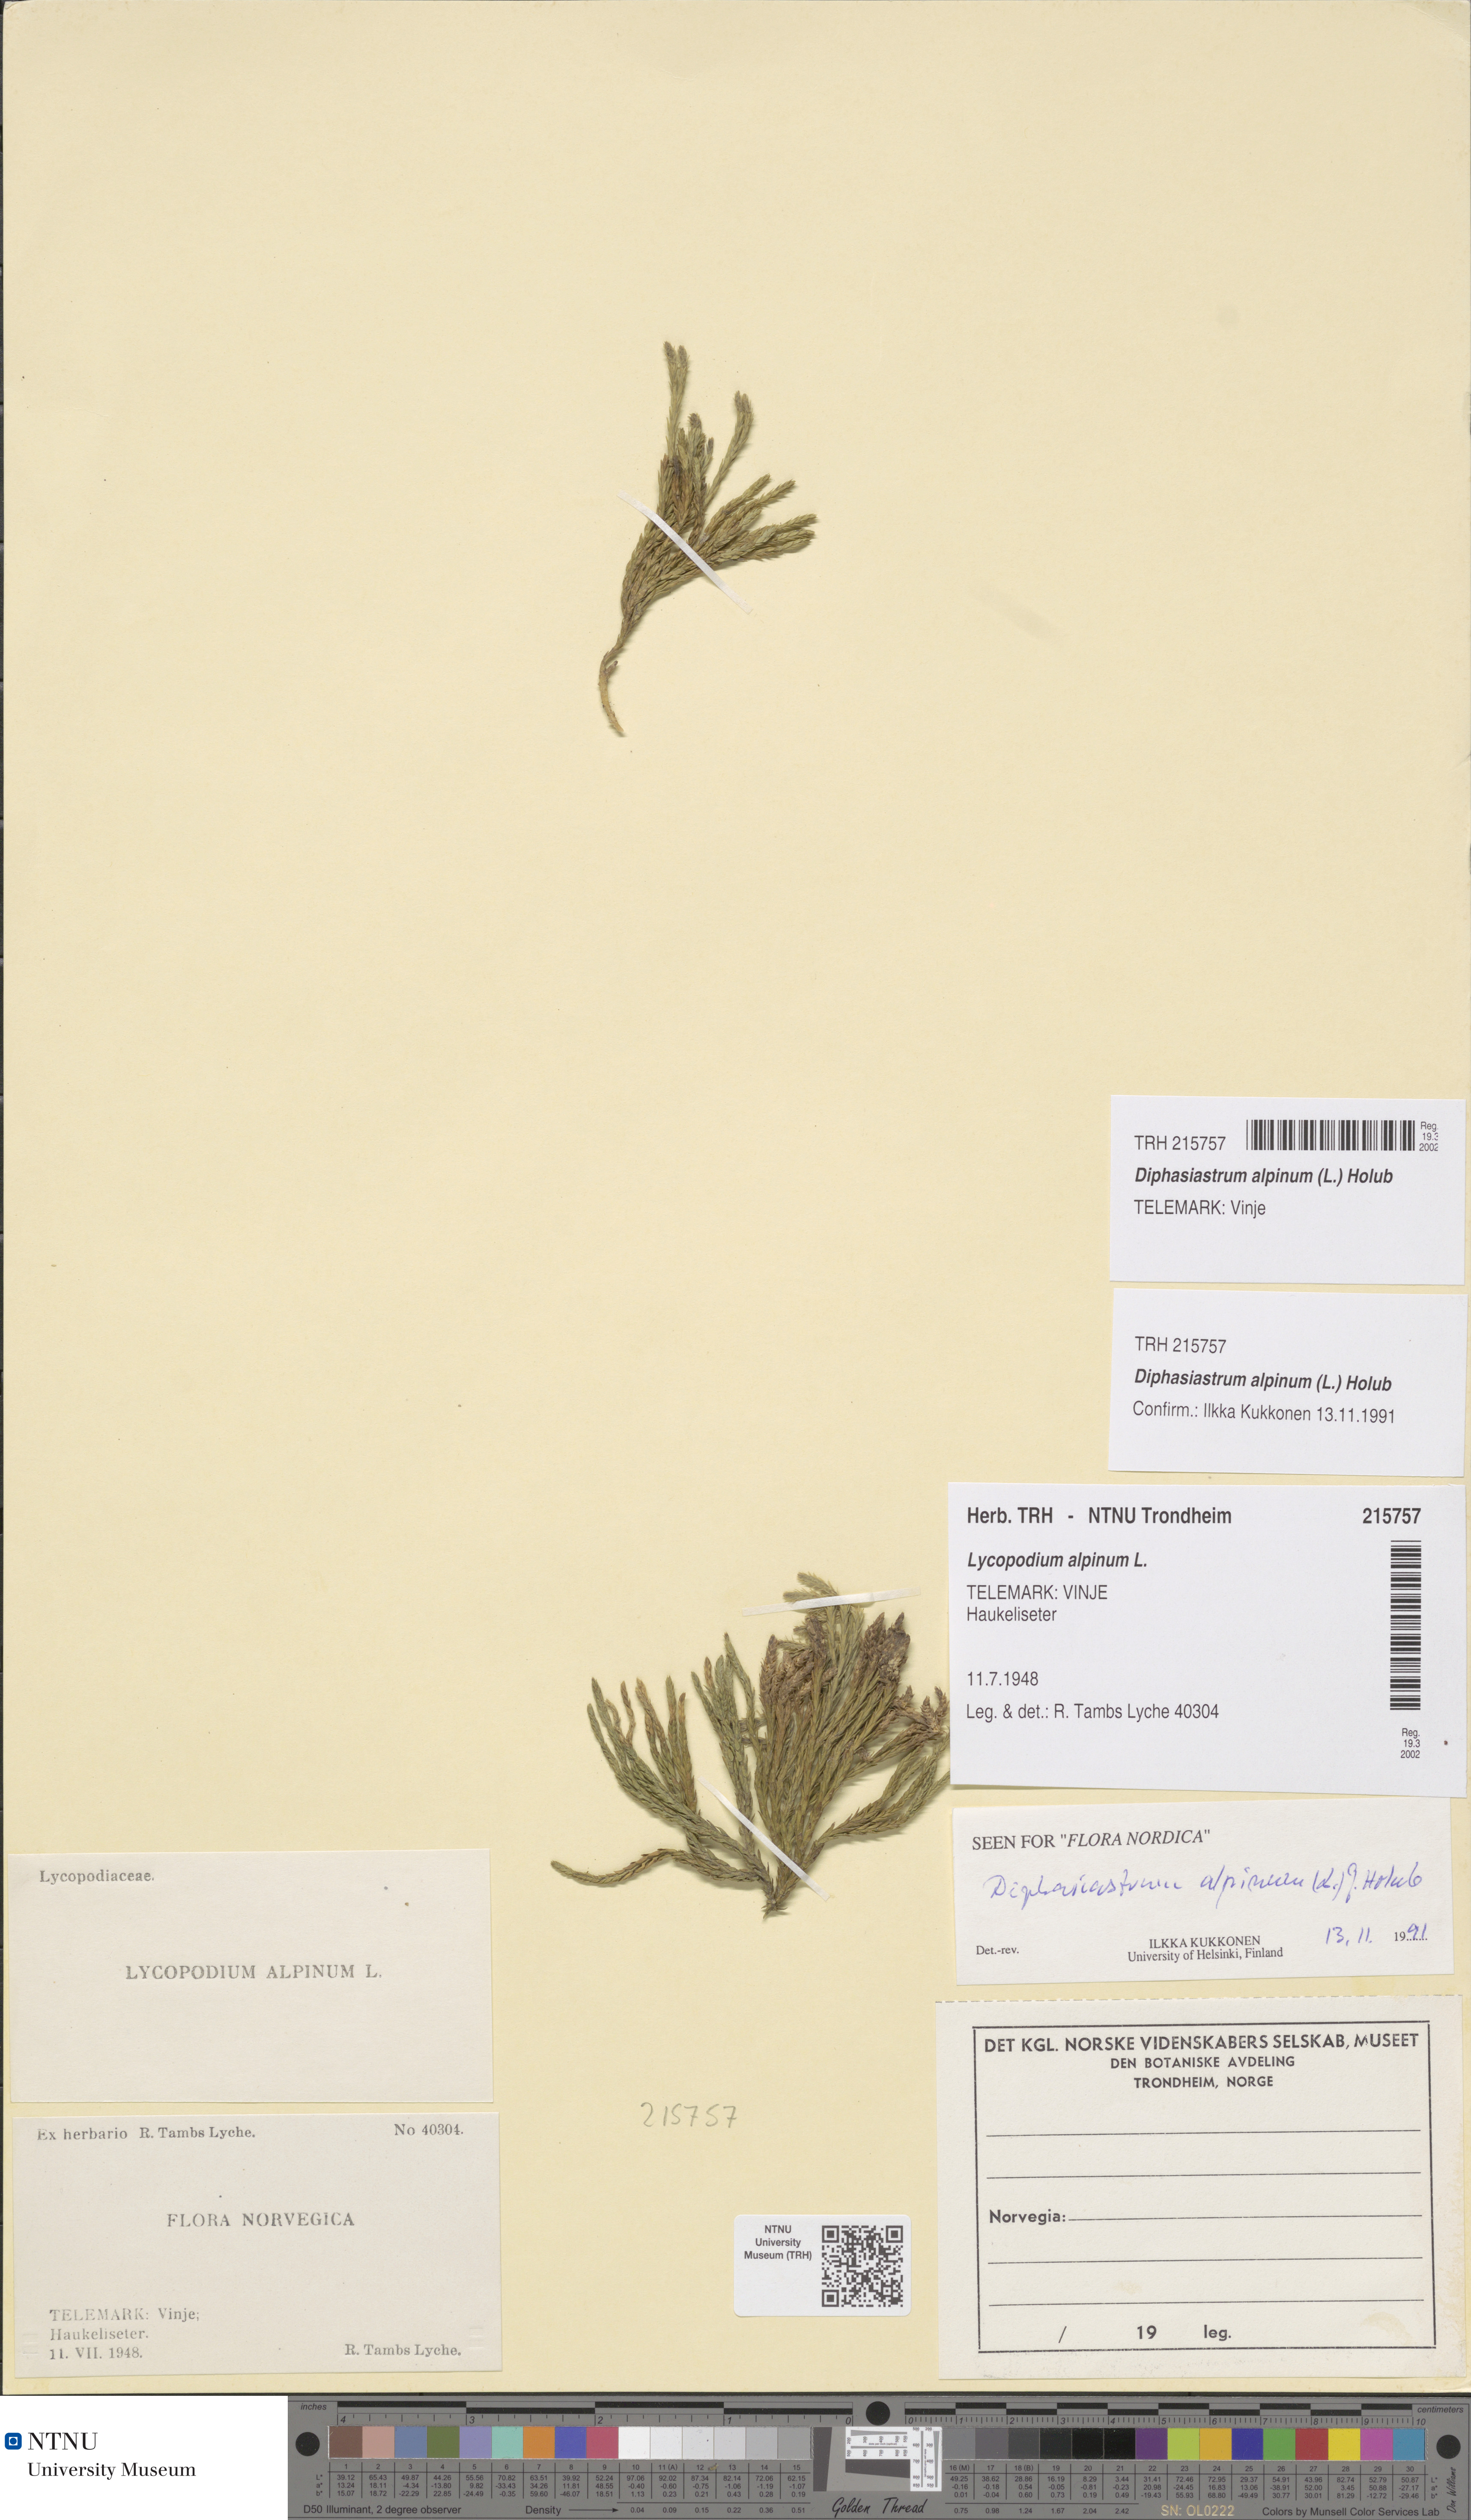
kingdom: Plantae
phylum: Tracheophyta
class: Lycopodiopsida
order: Lycopodiales
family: Lycopodiaceae
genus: Diphasiastrum
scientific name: Diphasiastrum alpinum
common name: Alpine clubmoss
